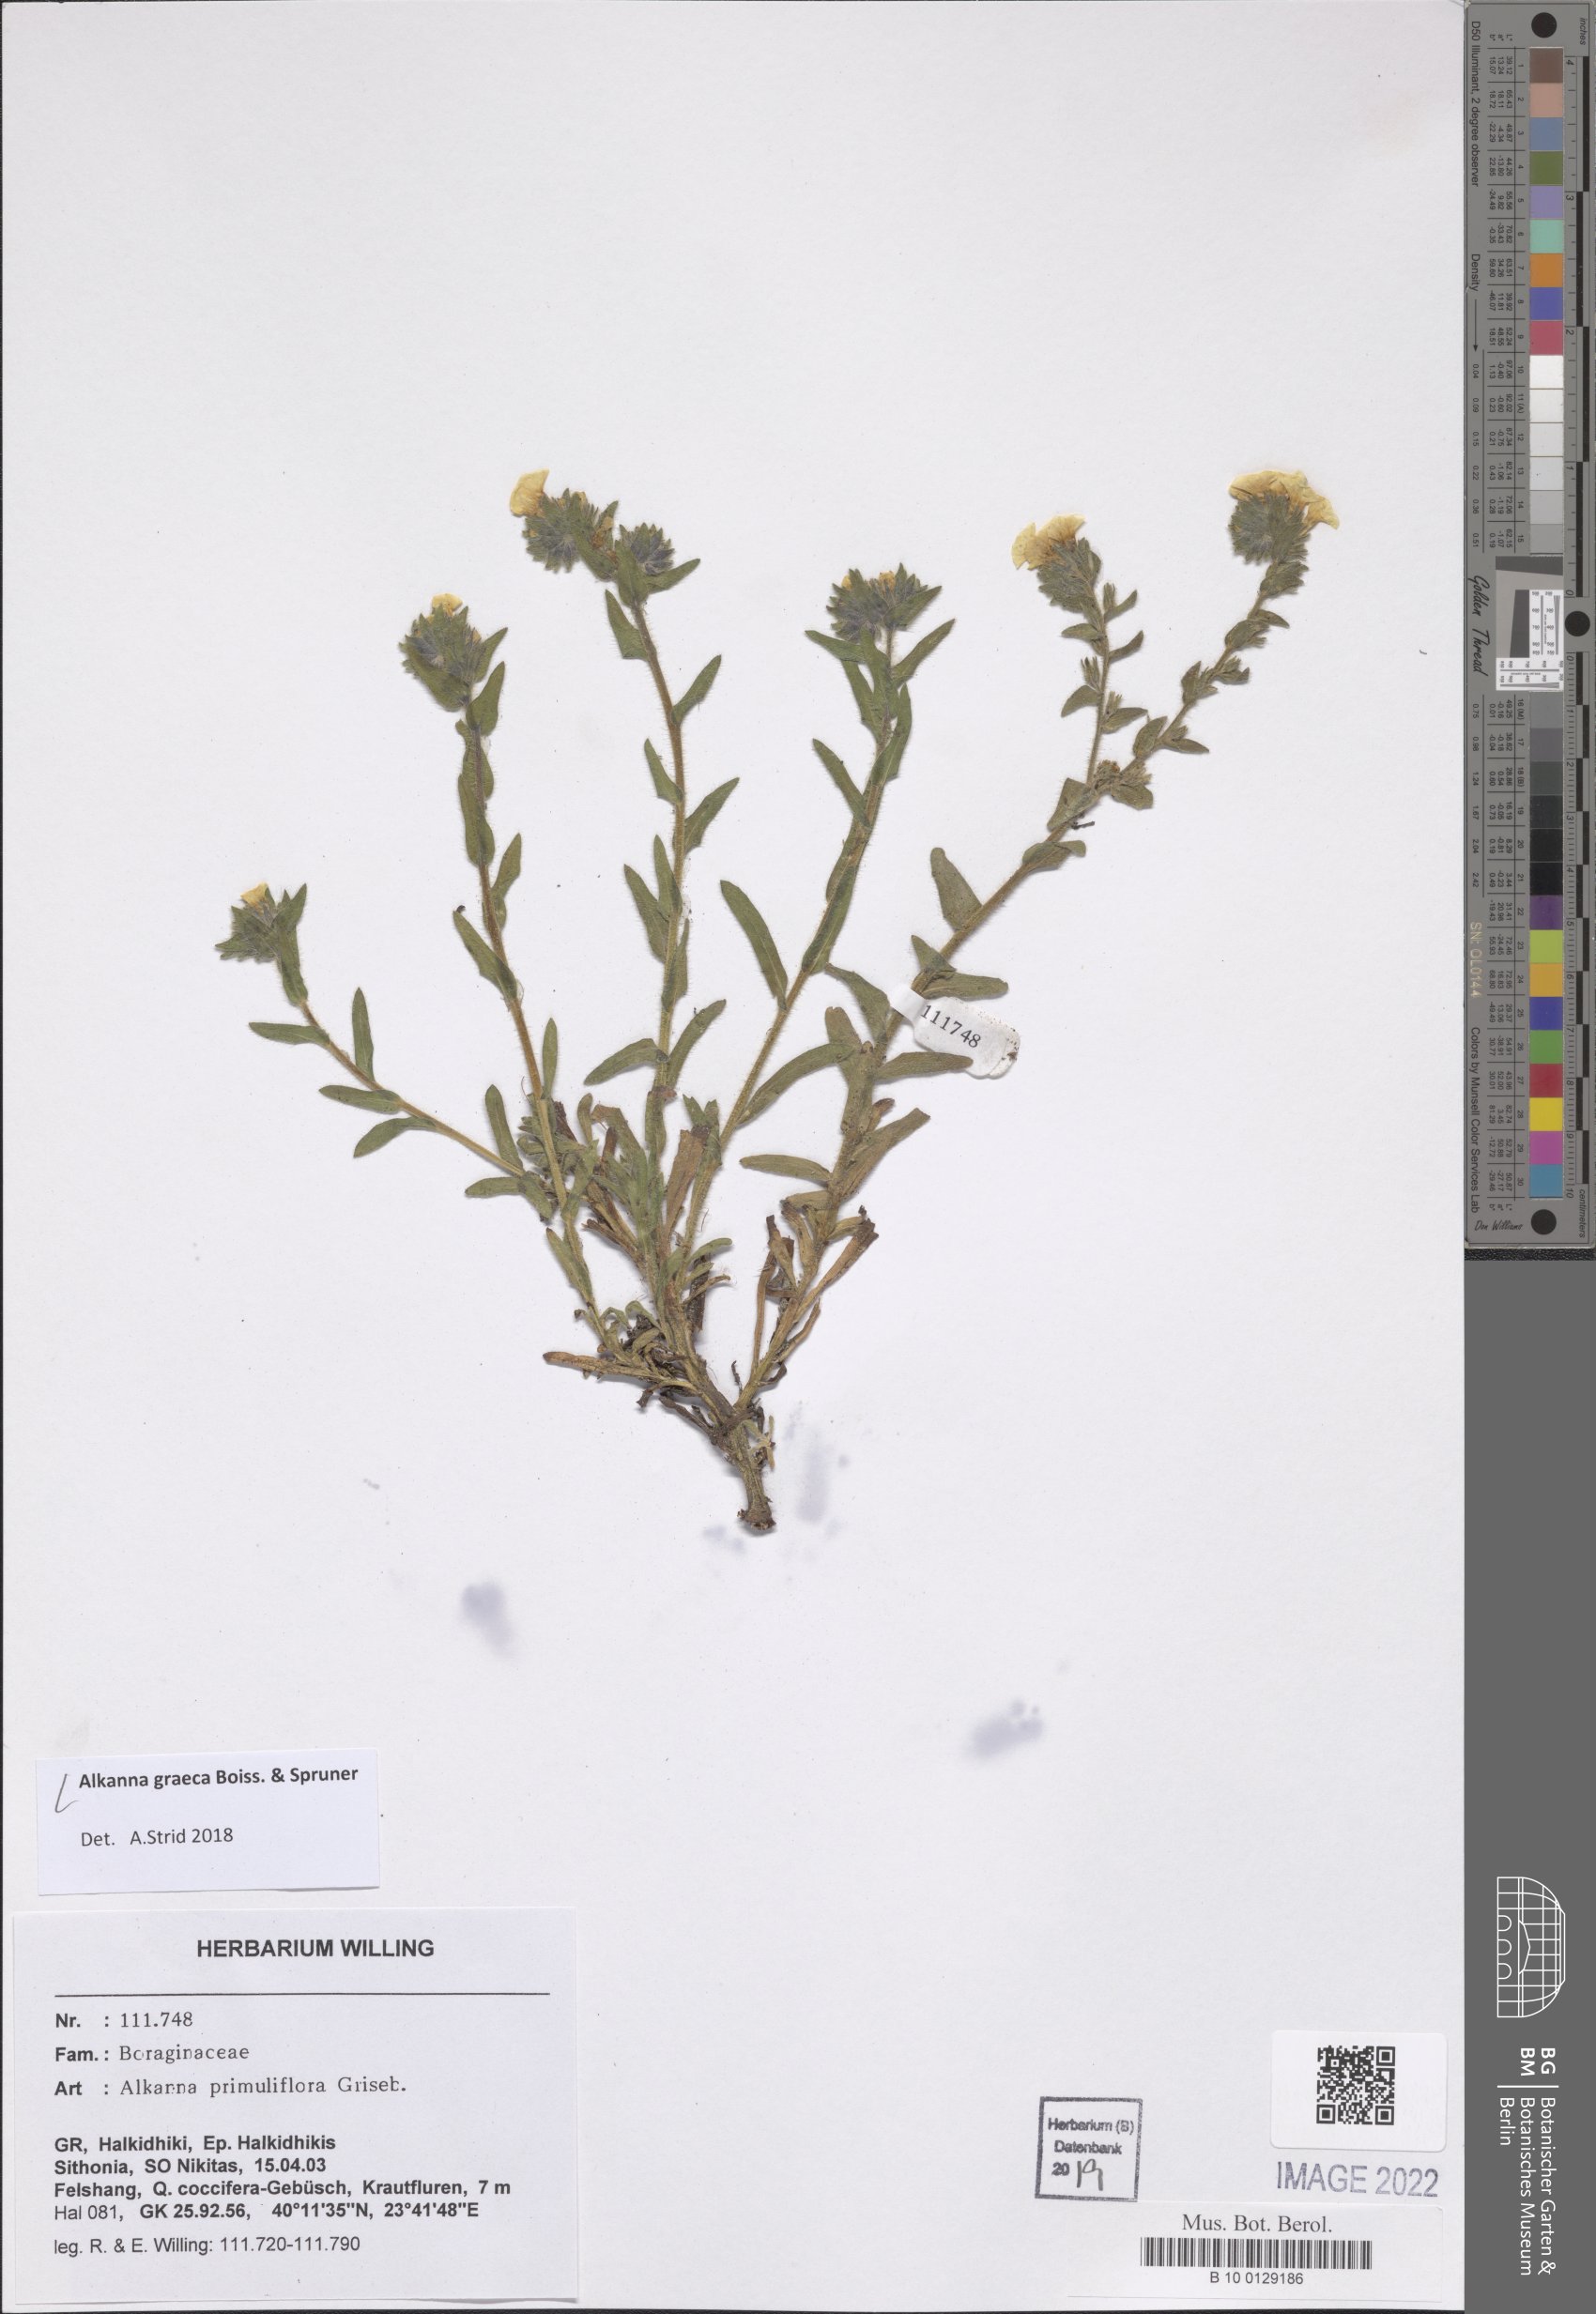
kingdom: Plantae
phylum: Tracheophyta
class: Magnoliopsida
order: Boraginales
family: Boraginaceae
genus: Alkanna
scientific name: Alkanna graeca
